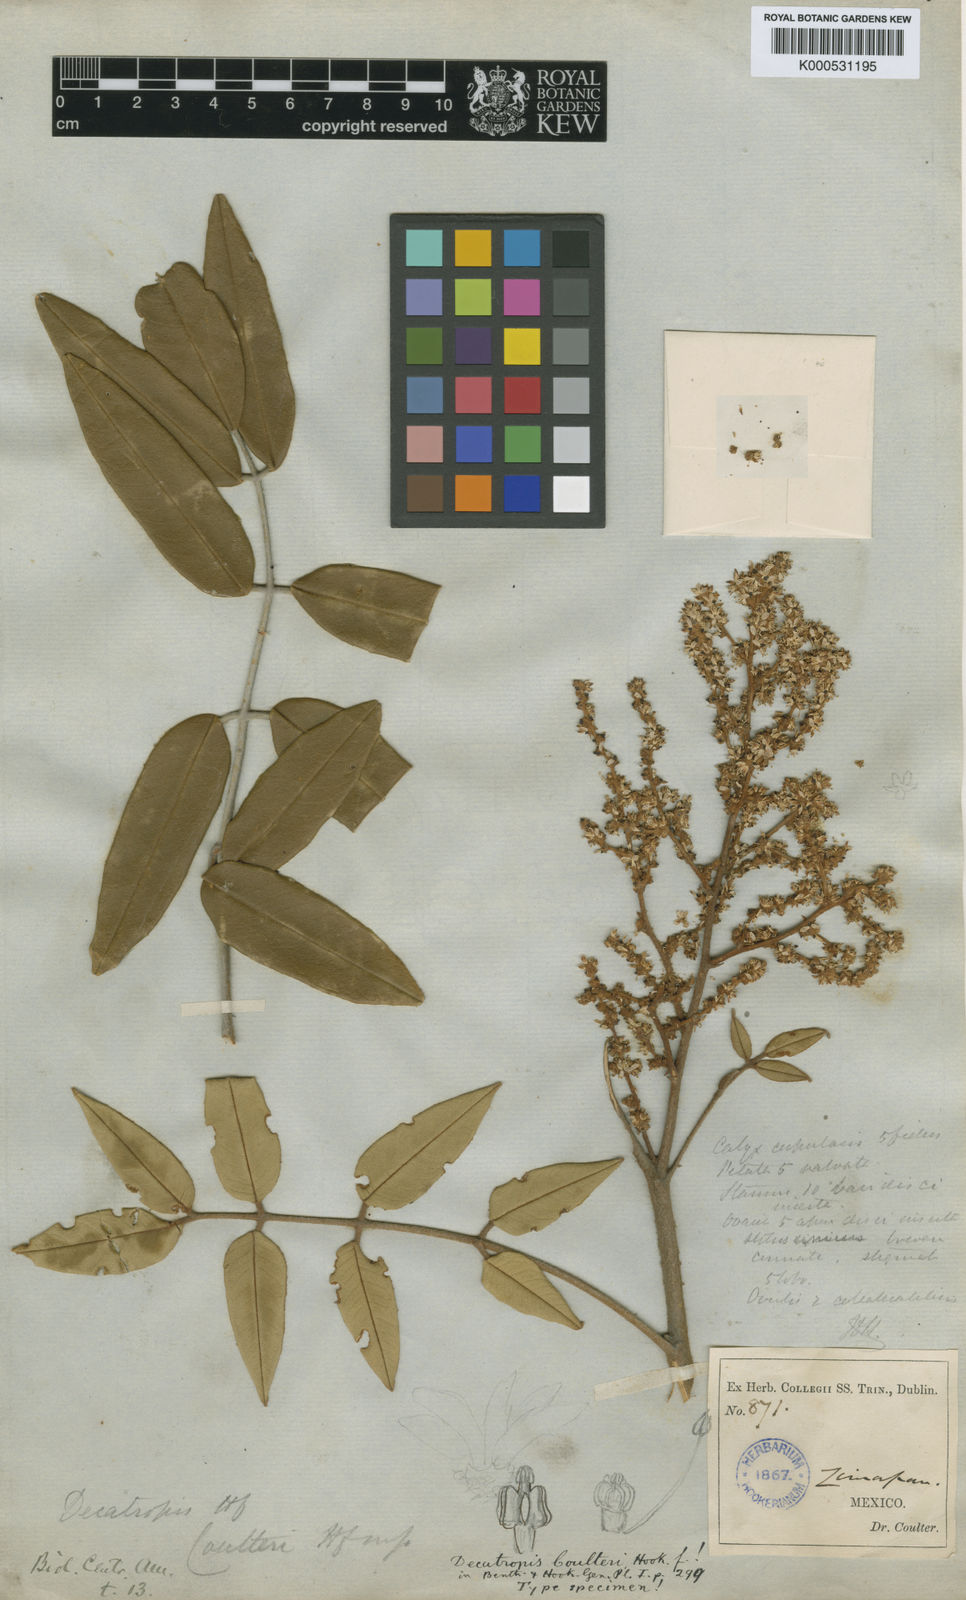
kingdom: Plantae
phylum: Tracheophyta
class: Magnoliopsida
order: Sapindales
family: Rutaceae
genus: Decatropis
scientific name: Decatropis bicolor
